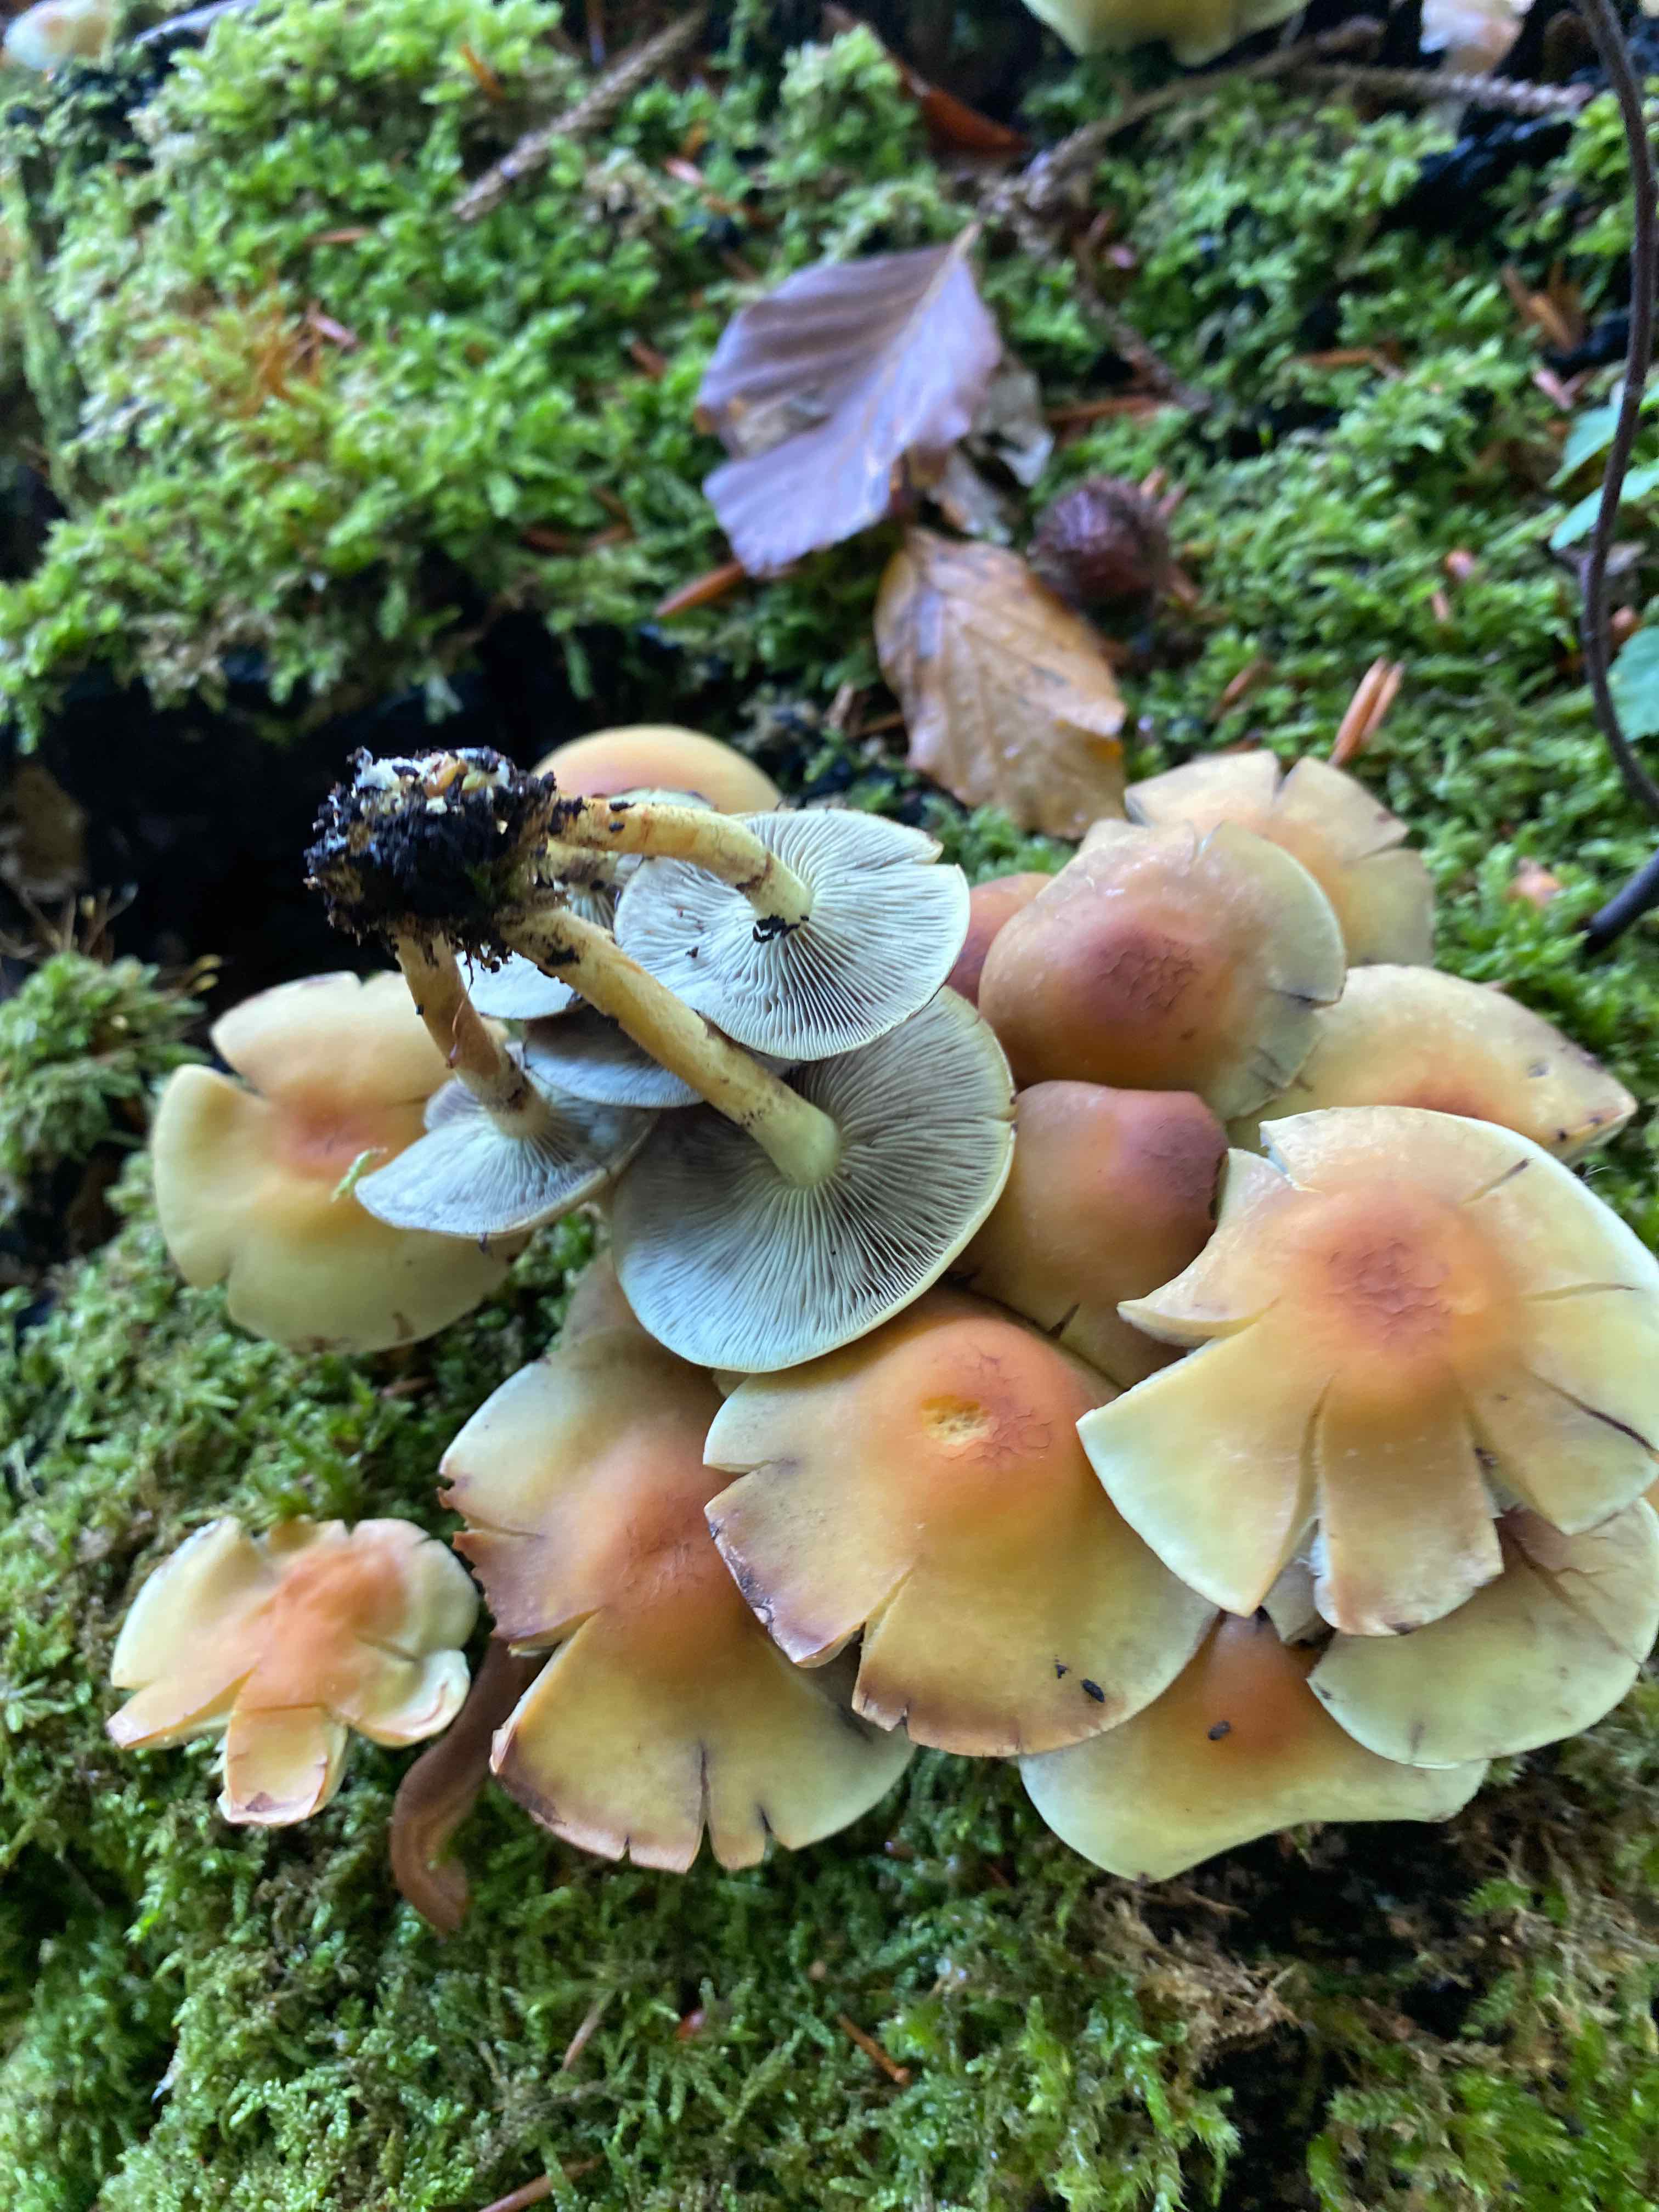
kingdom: Fungi
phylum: Basidiomycota
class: Agaricomycetes
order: Agaricales
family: Strophariaceae
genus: Hypholoma
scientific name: Hypholoma fasciculare
